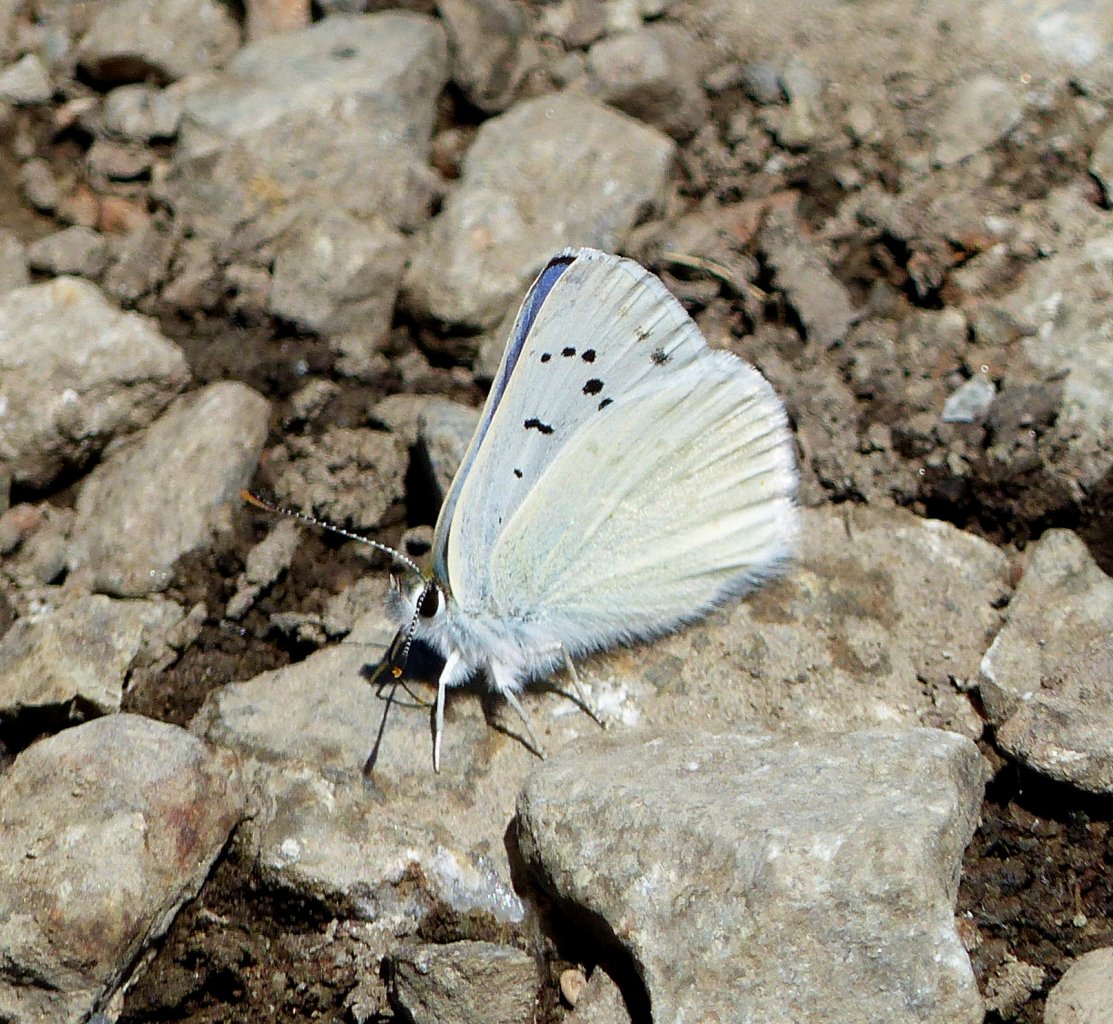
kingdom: Animalia
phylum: Arthropoda
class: Insecta
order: Lepidoptera
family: Lycaenidae
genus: Lycaena
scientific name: Lycaena heteronea
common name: Blue Copper
